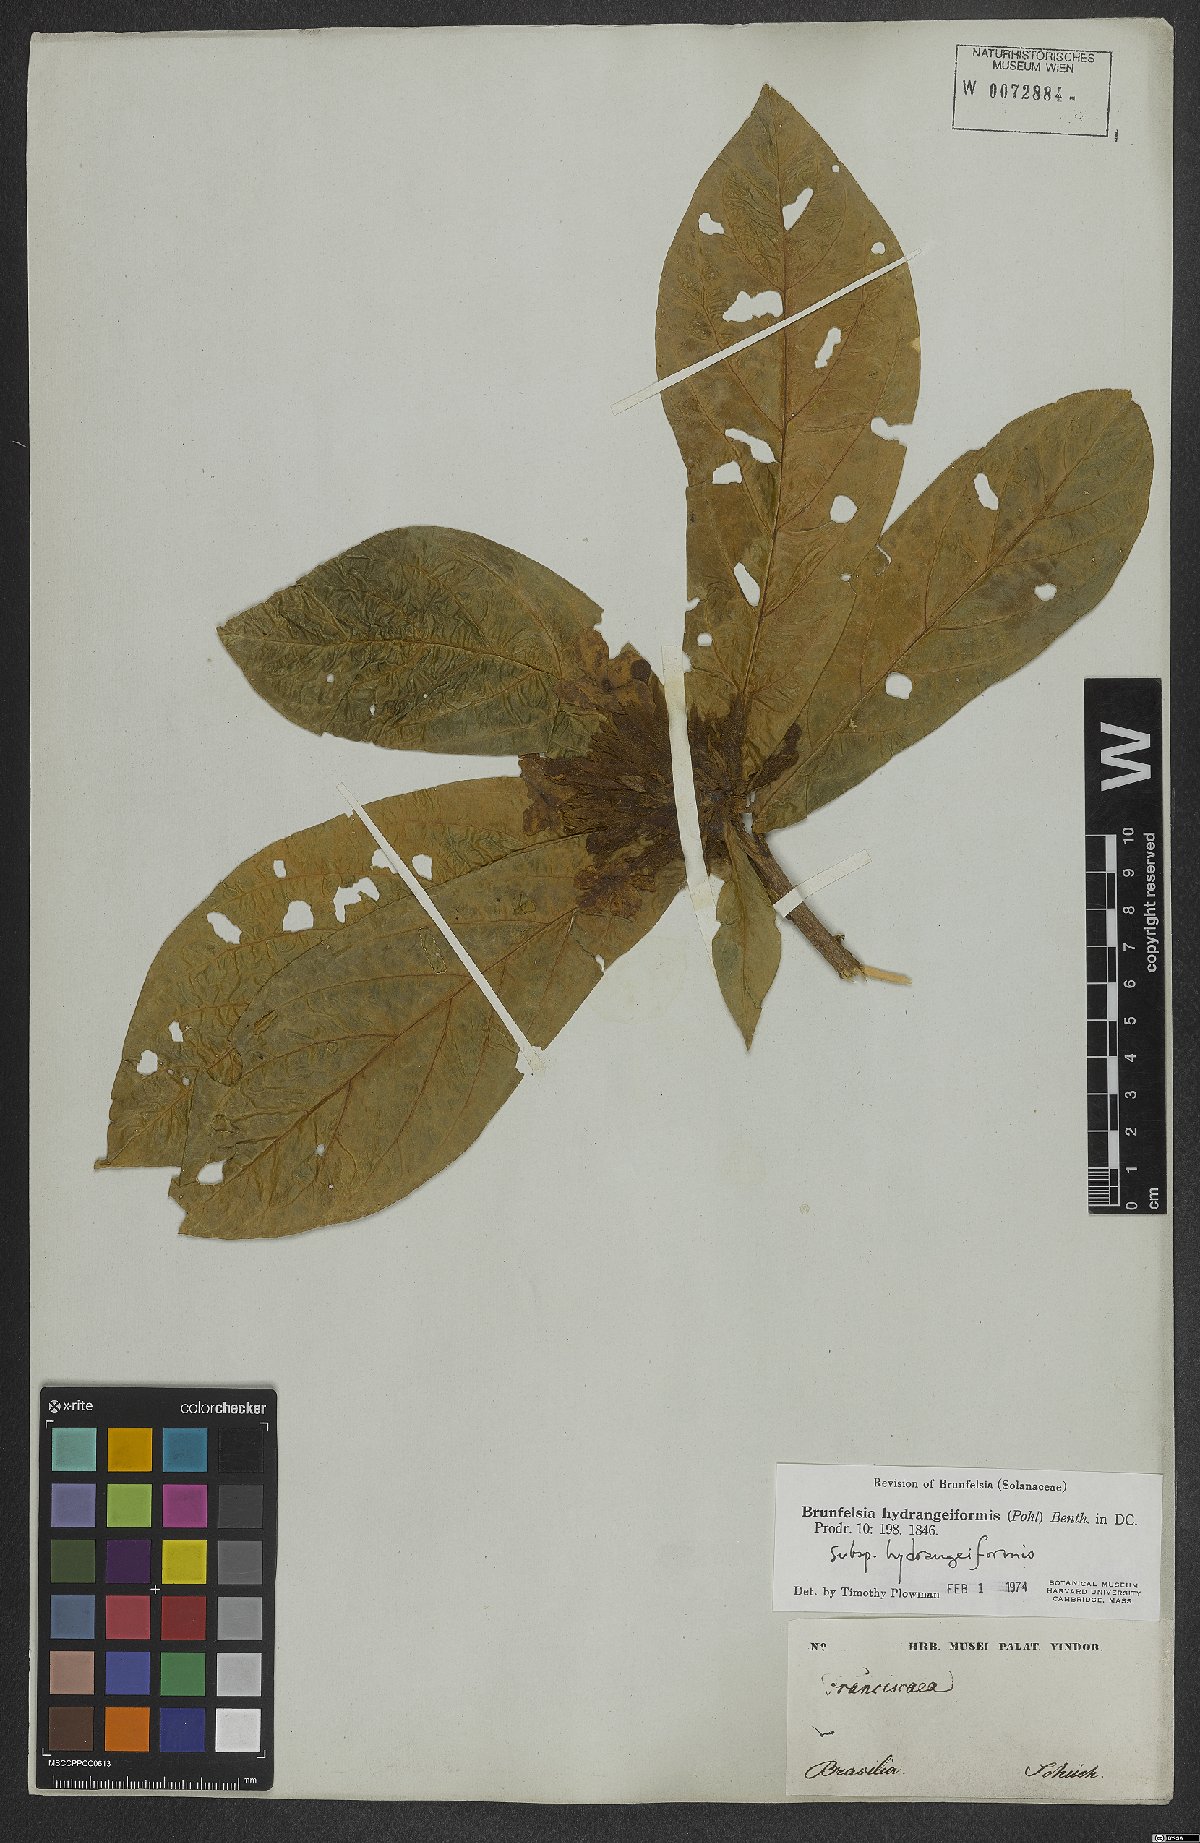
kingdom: Plantae
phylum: Tracheophyta
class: Magnoliopsida
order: Solanales
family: Solanaceae
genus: Brunfelsia
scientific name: Brunfelsia hydrangeiformis
